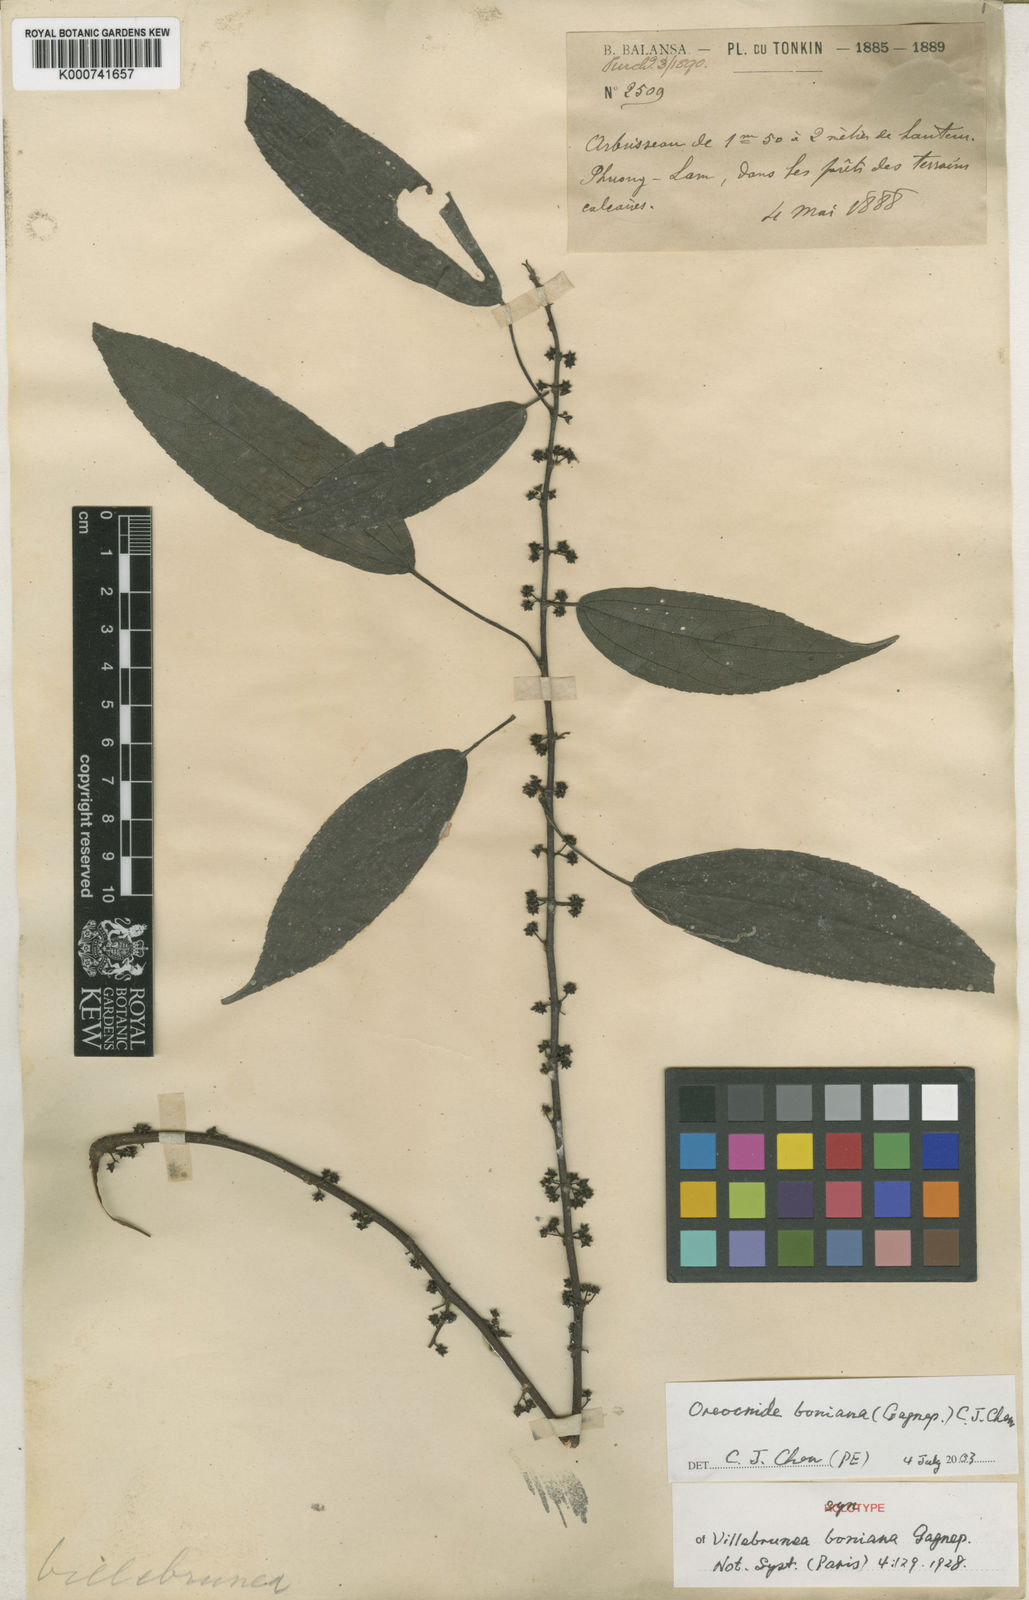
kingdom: Plantae
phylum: Tracheophyta
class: Magnoliopsida
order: Rosales
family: Urticaceae
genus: Oreocnide
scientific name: Oreocnide boniana
